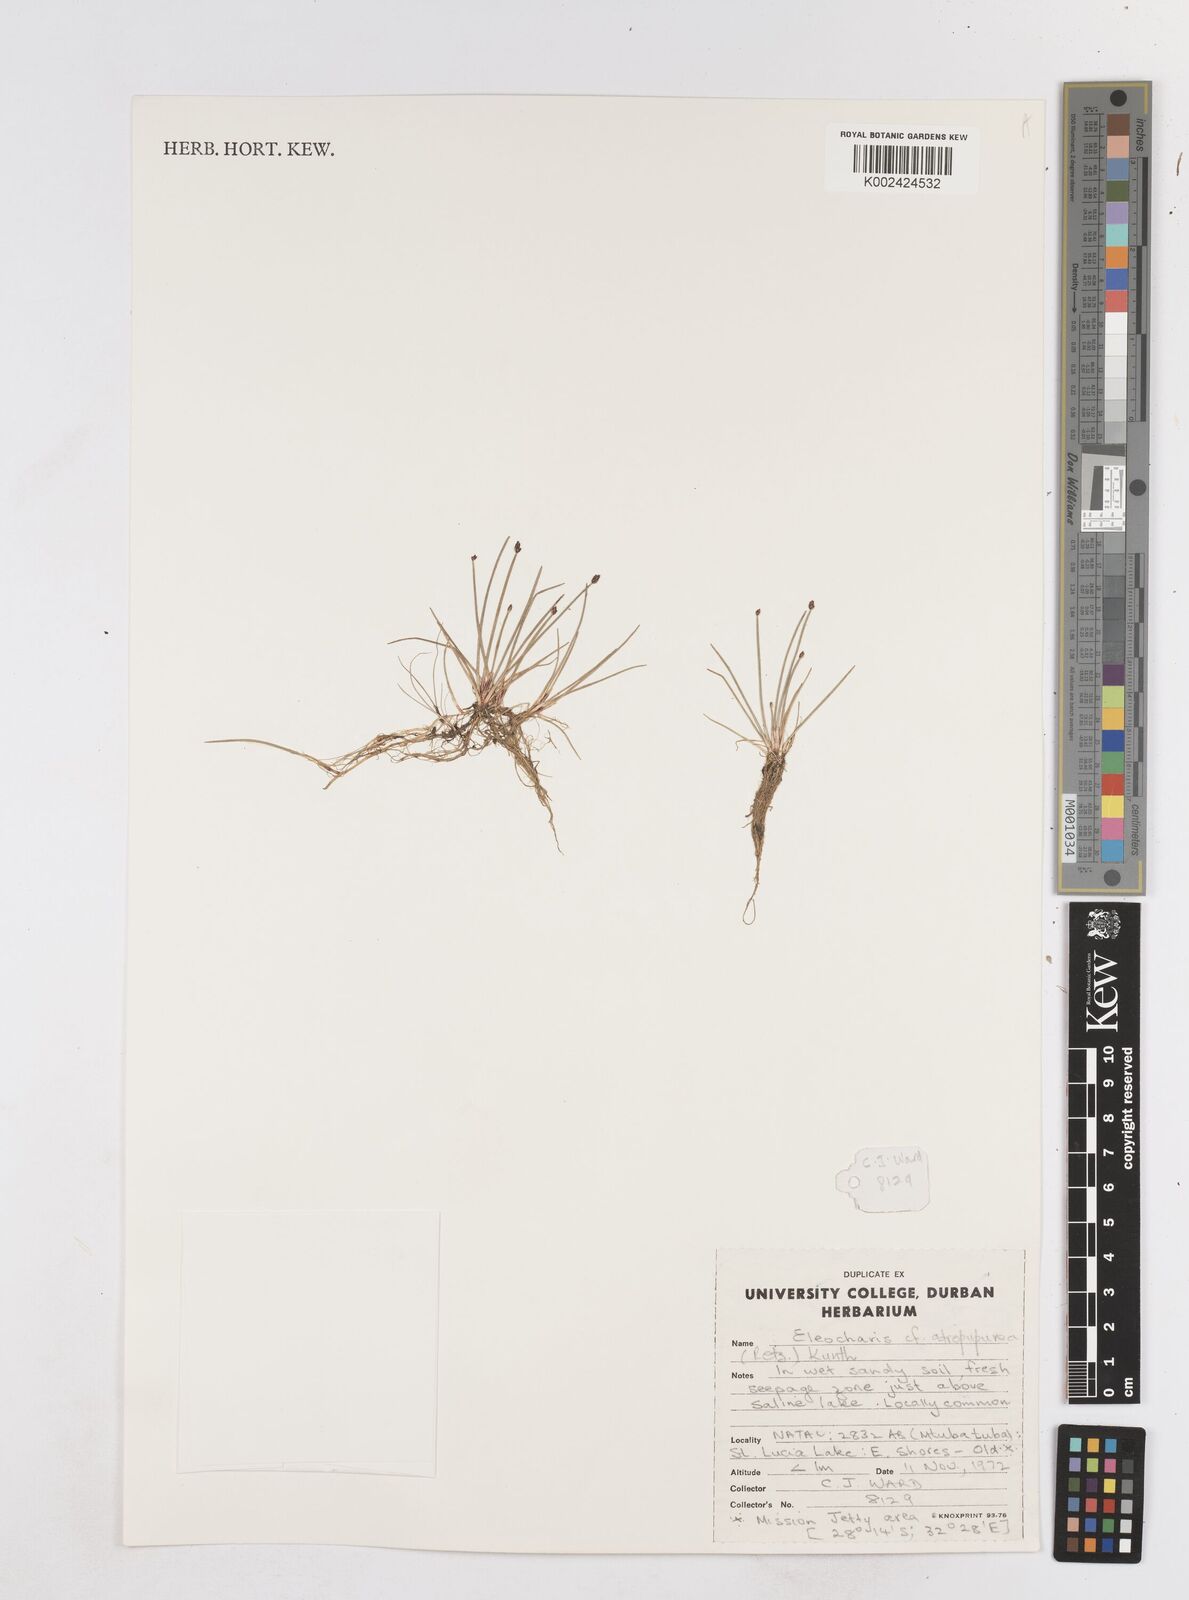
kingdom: Plantae
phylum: Tracheophyta
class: Liliopsida
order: Poales
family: Cyperaceae
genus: Eleocharis
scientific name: Eleocharis atropurpurea
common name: Purple spikerush
